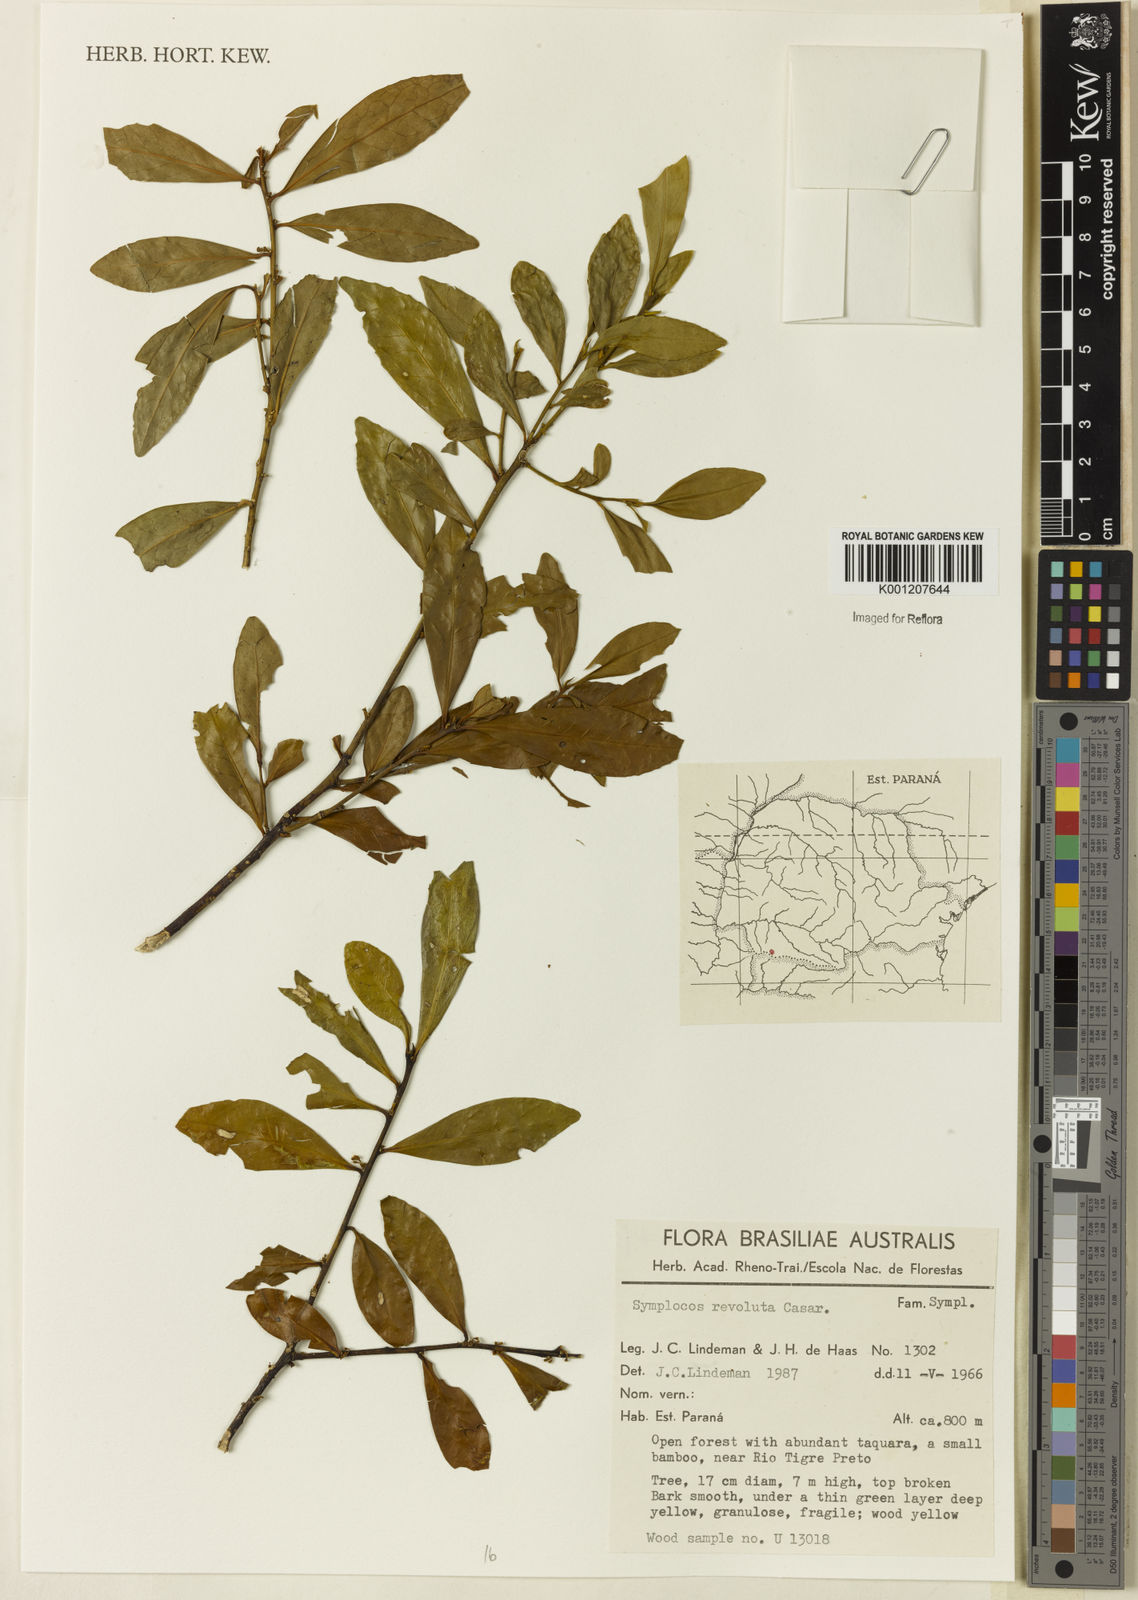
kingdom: Plantae
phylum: Tracheophyta
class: Magnoliopsida
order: Ericales
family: Symplocaceae
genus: Symplocos
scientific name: Symplocos revoluta
